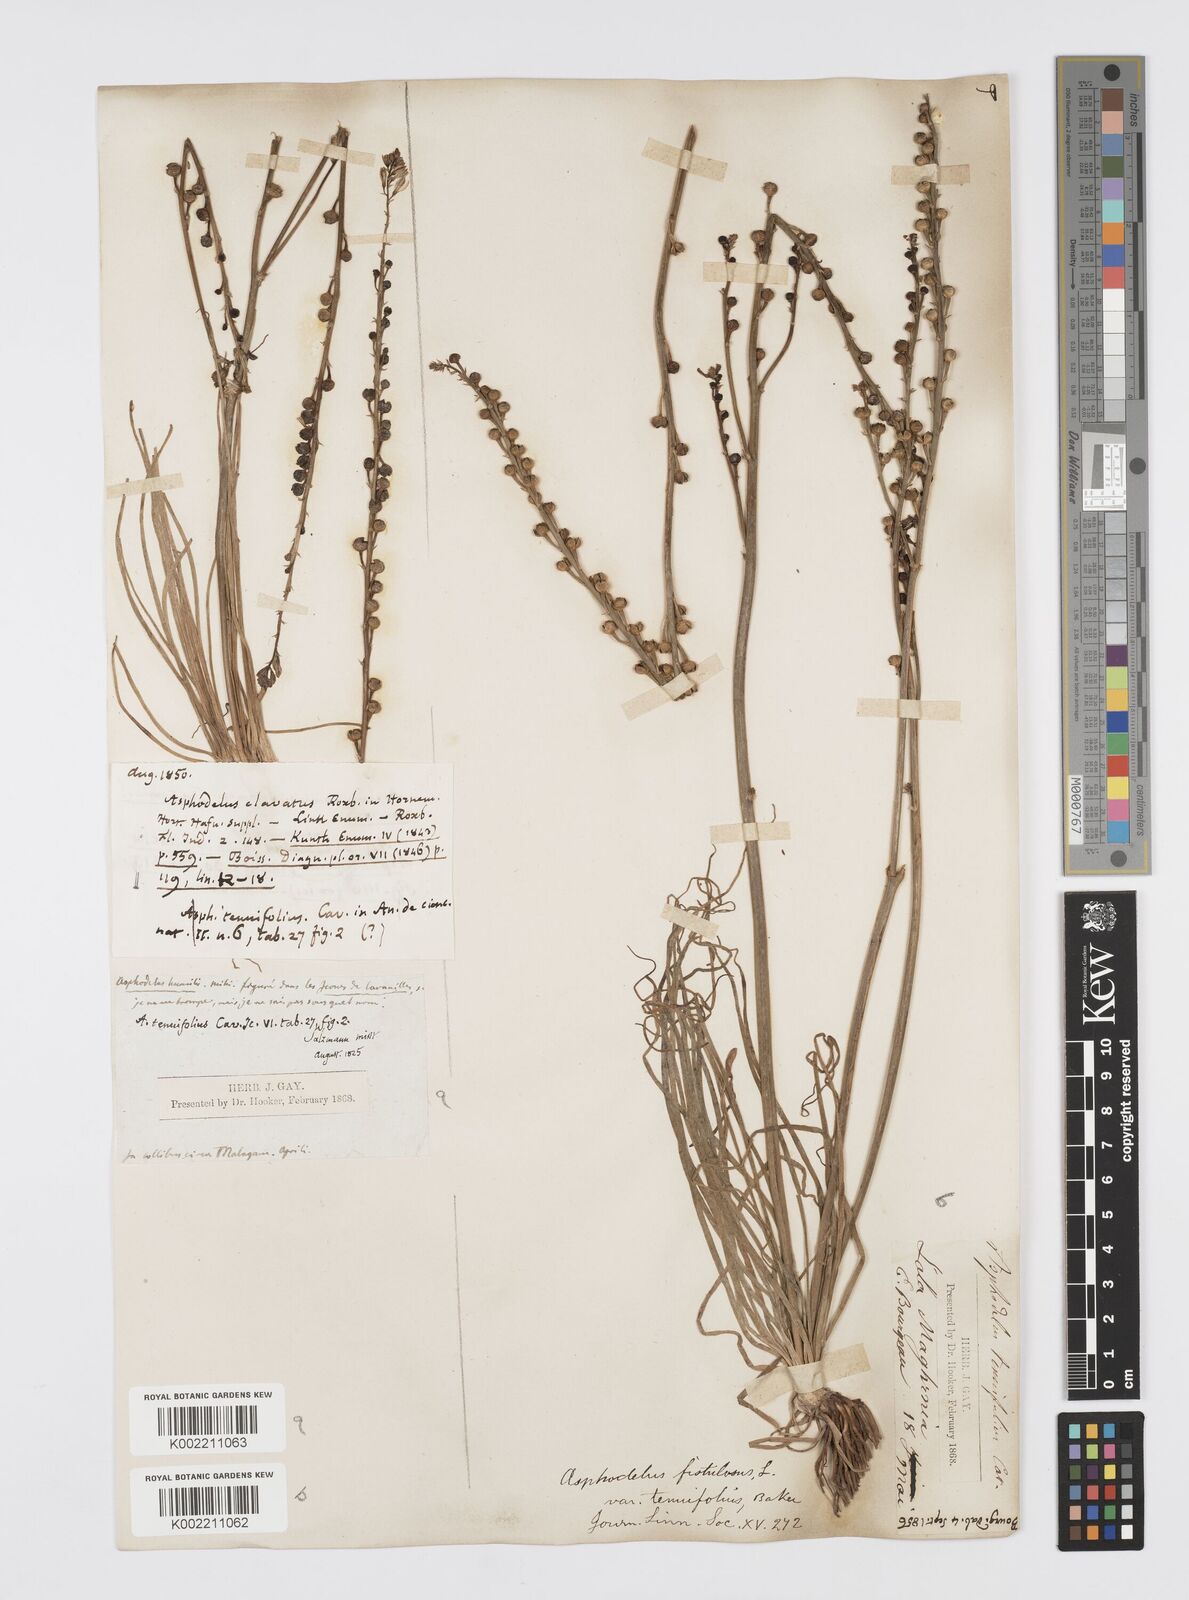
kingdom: Plantae
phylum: Tracheophyta
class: Liliopsida
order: Asparagales
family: Asphodelaceae
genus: Asphodelus
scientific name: Asphodelus tenuifolius
